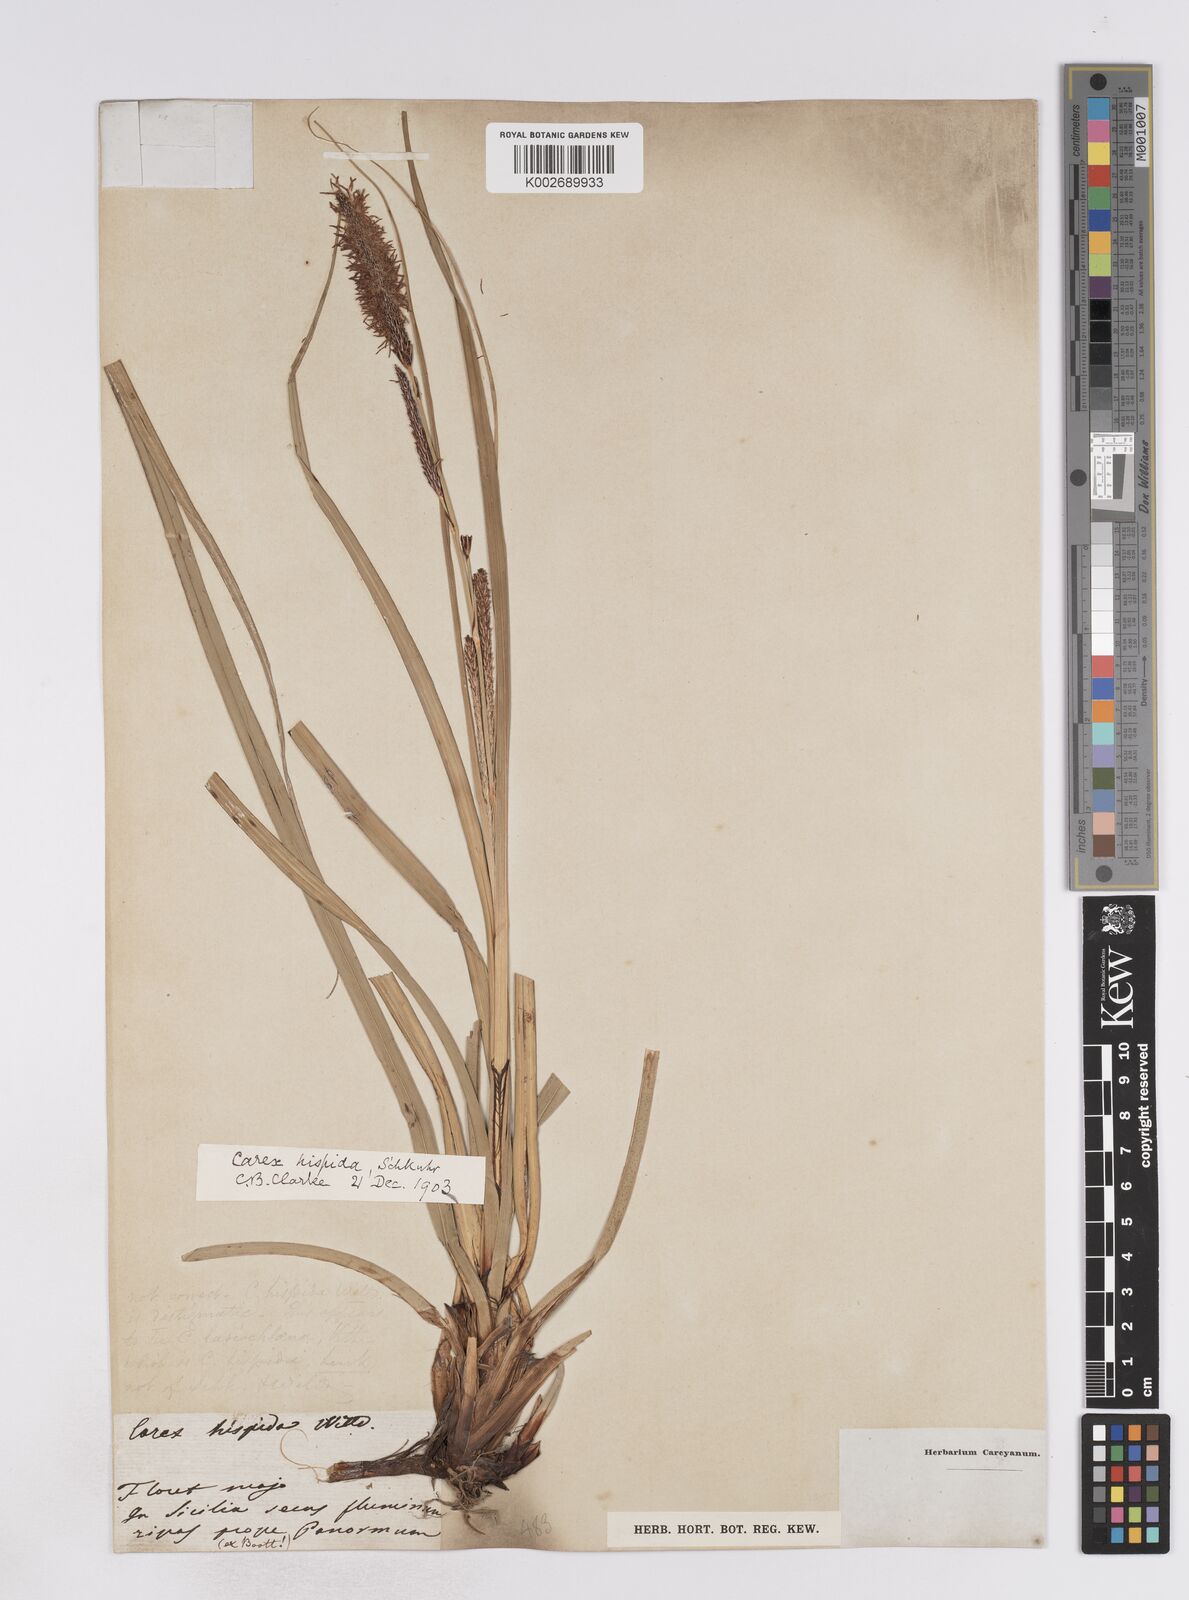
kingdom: Plantae
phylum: Tracheophyta
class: Liliopsida
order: Poales
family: Cyperaceae
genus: Carex
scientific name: Carex hispida
